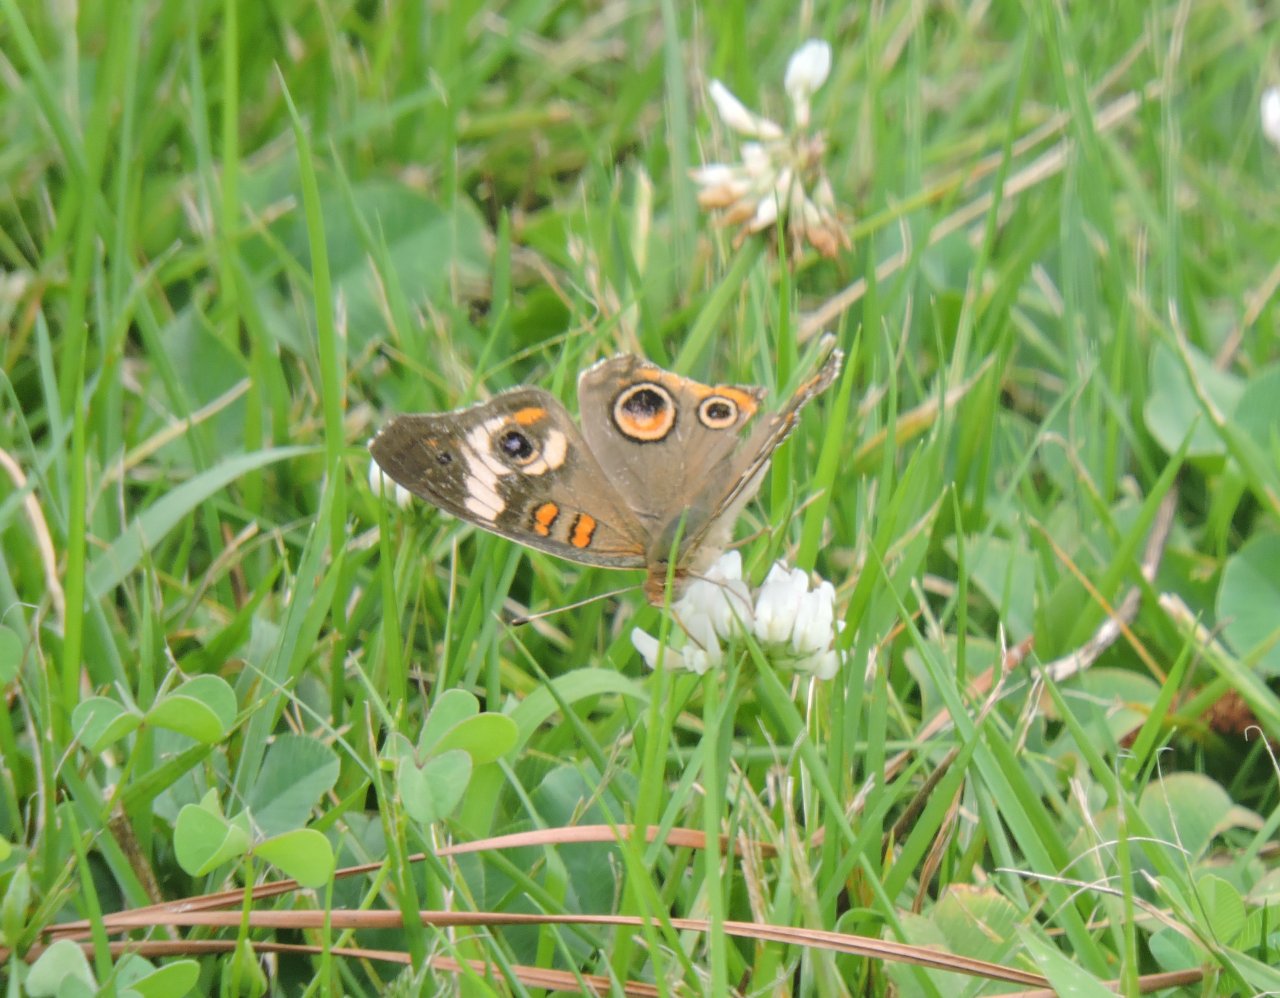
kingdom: Animalia
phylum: Arthropoda
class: Insecta
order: Lepidoptera
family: Nymphalidae
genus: Junonia
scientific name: Junonia coenia
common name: Common Buckeye
